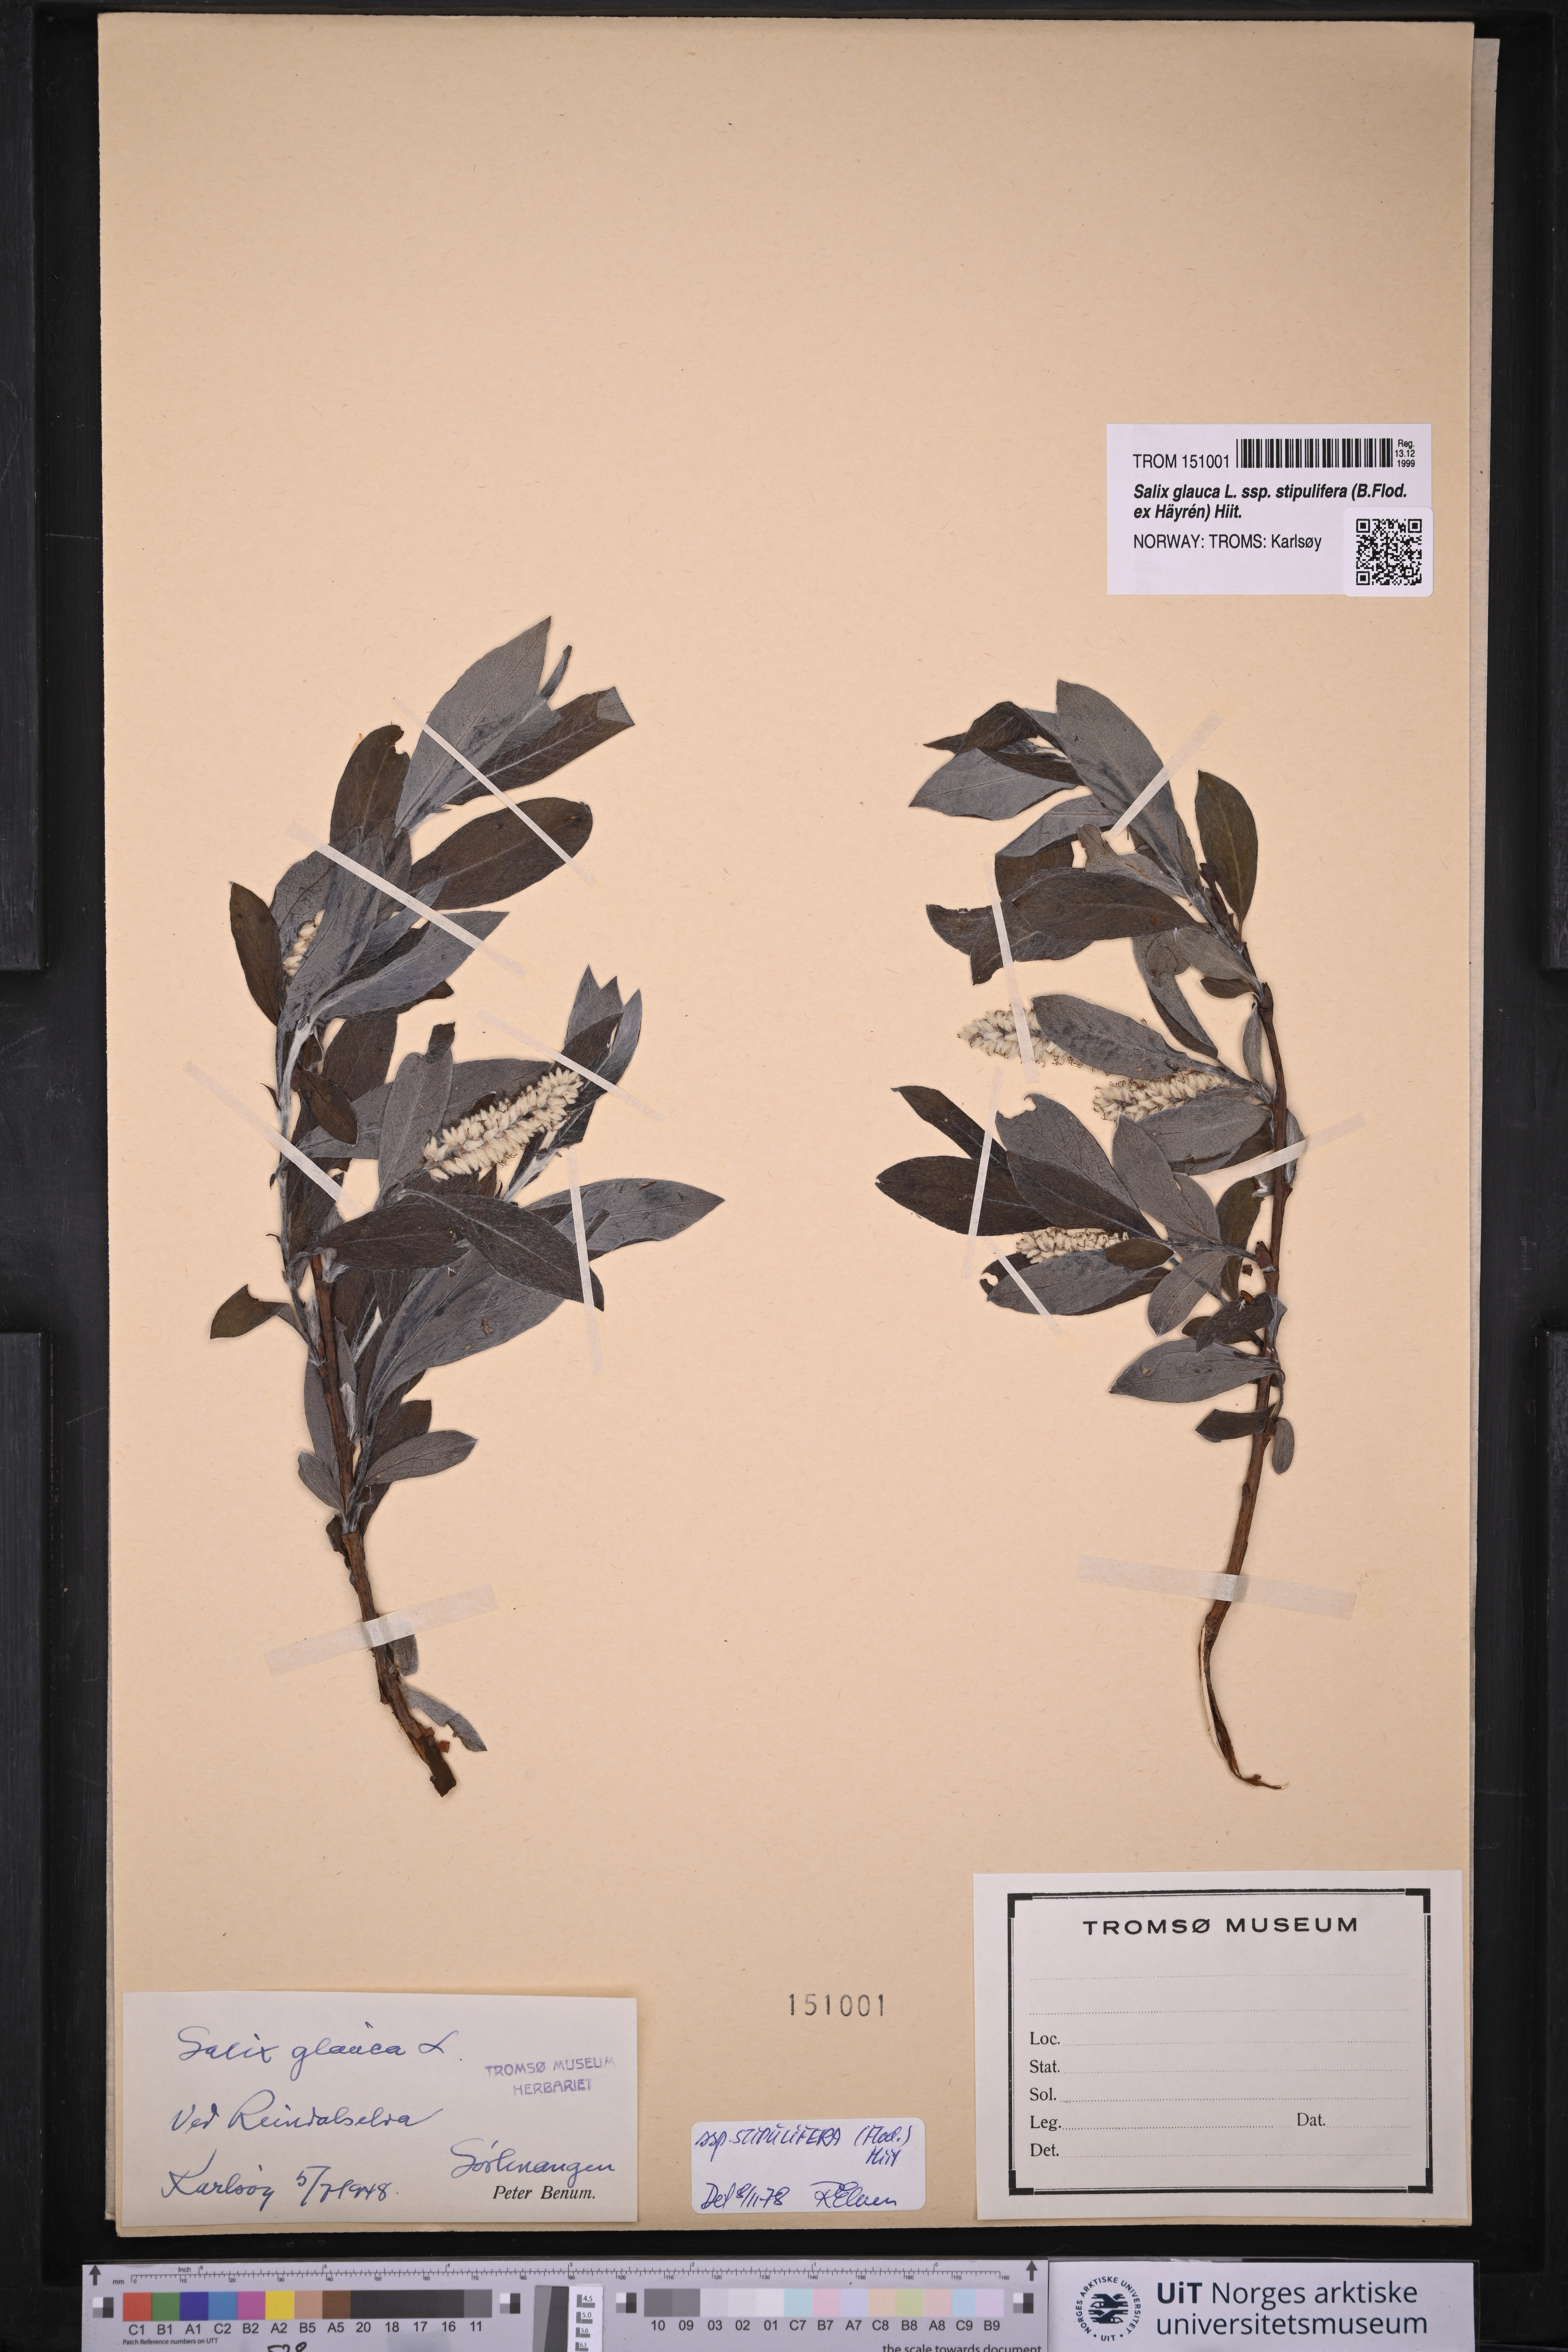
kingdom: Plantae
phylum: Tracheophyta
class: Magnoliopsida
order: Malpighiales
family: Salicaceae
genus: Salix
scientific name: Salix glauca
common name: Glaucous willow
